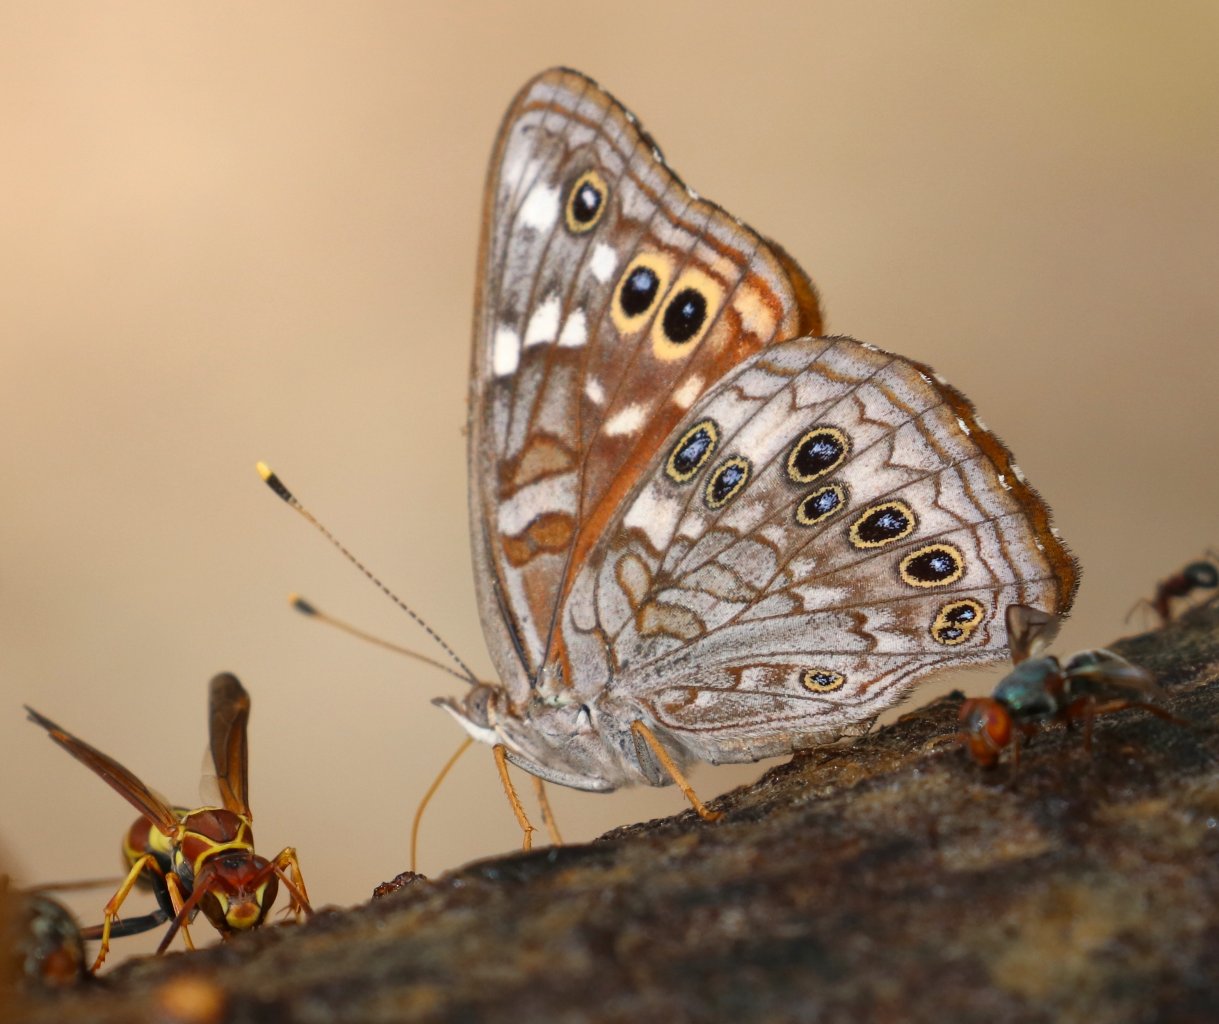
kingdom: Animalia
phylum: Arthropoda
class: Insecta
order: Lepidoptera
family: Nymphalidae
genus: Asterocampa
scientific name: Asterocampa leilia
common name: Empress Leilia
